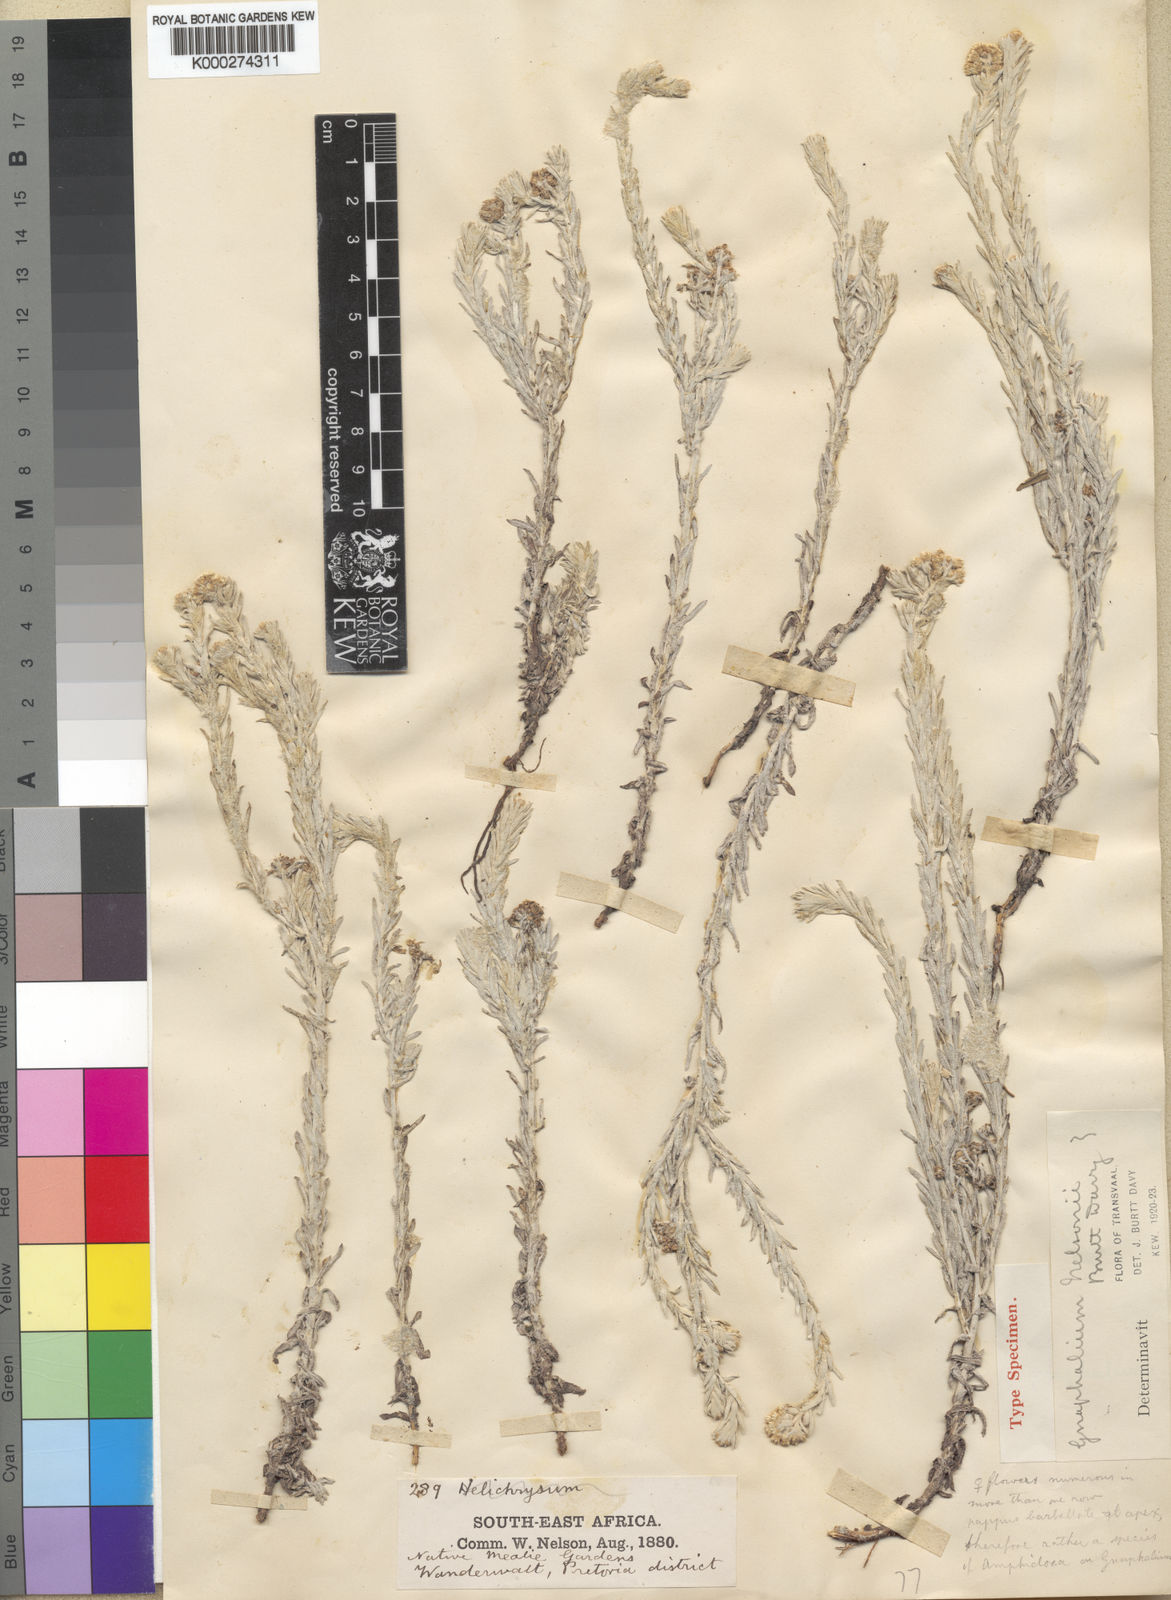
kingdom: Plantae
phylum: Tracheophyta
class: Magnoliopsida
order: Asterales
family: Asteraceae
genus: Gnaphalium
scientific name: Gnaphalium nelsonii
